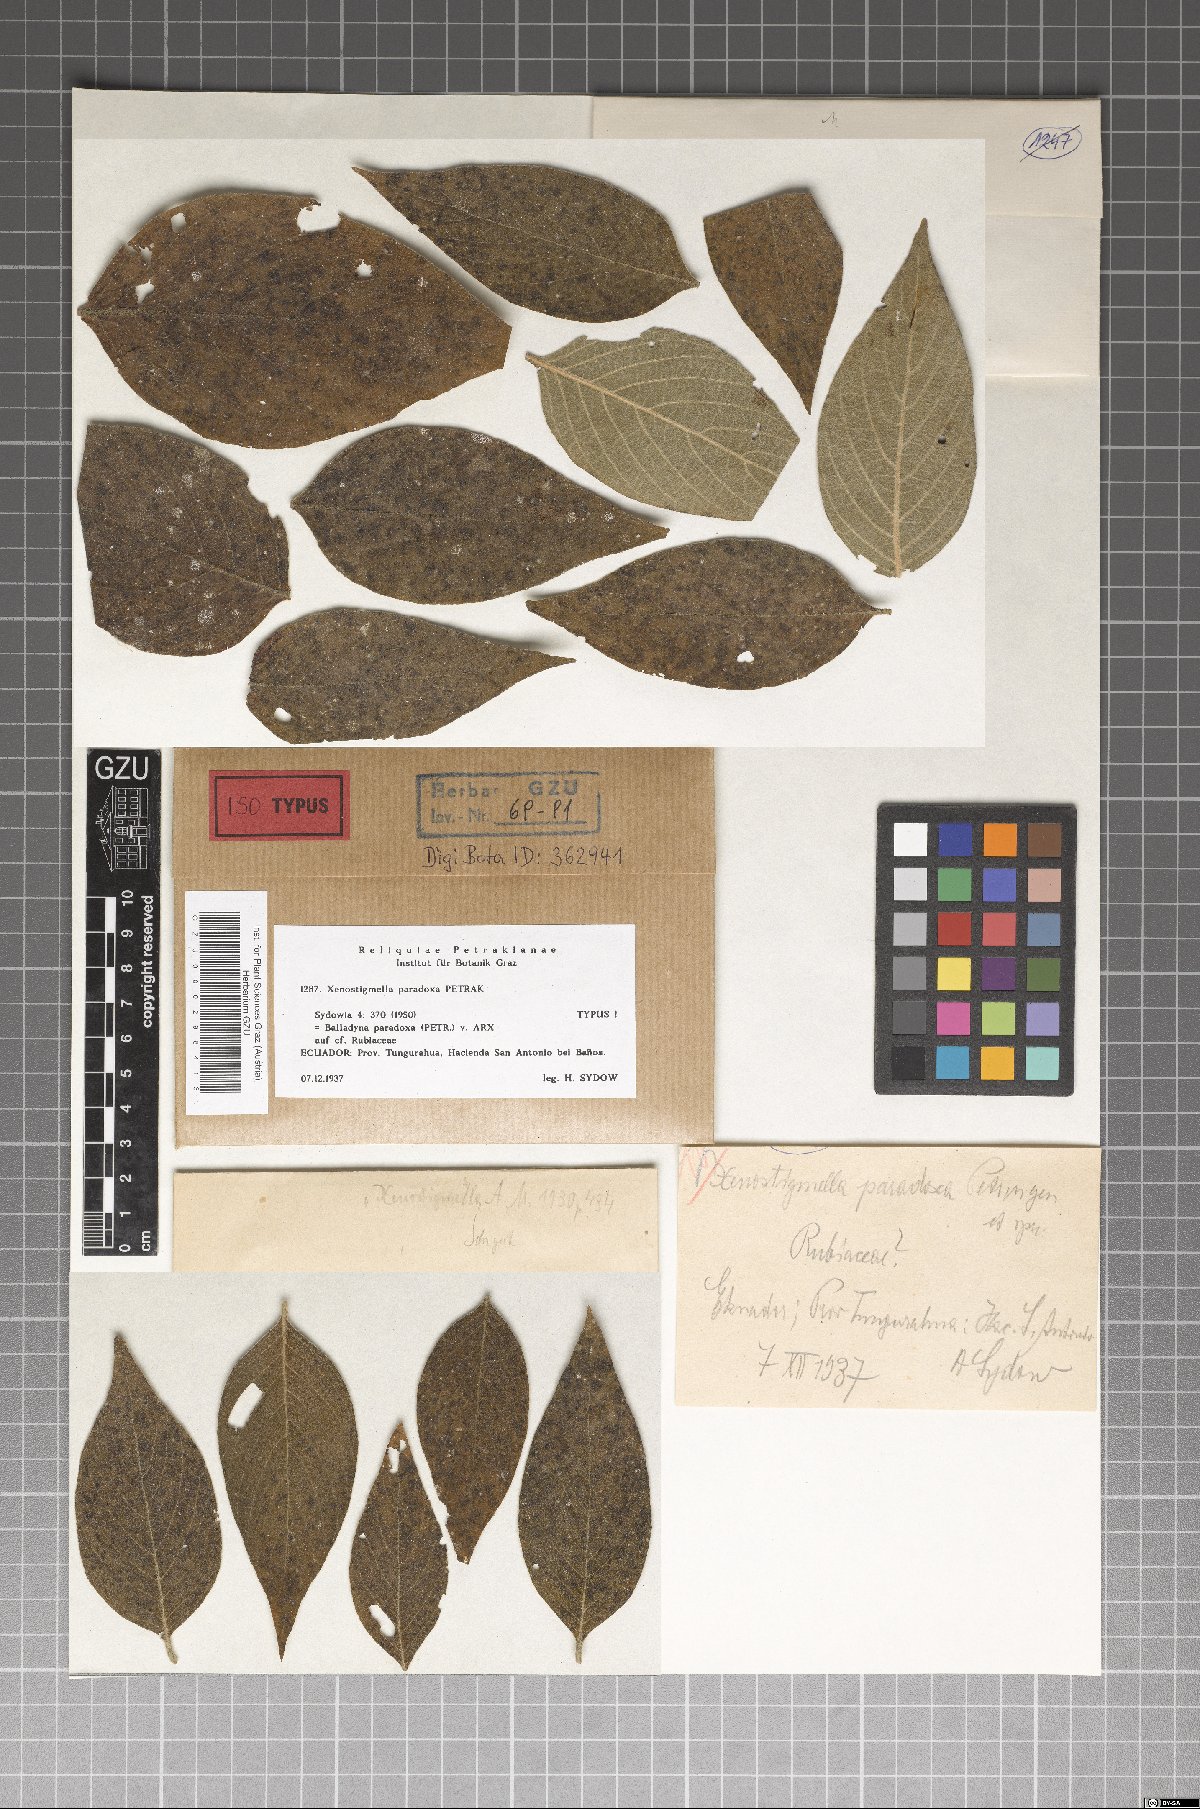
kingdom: Fungi
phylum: Ascomycota
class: Dothideomycetes
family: Balladynaceae
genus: Balladyna
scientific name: Balladyna paradoxa
